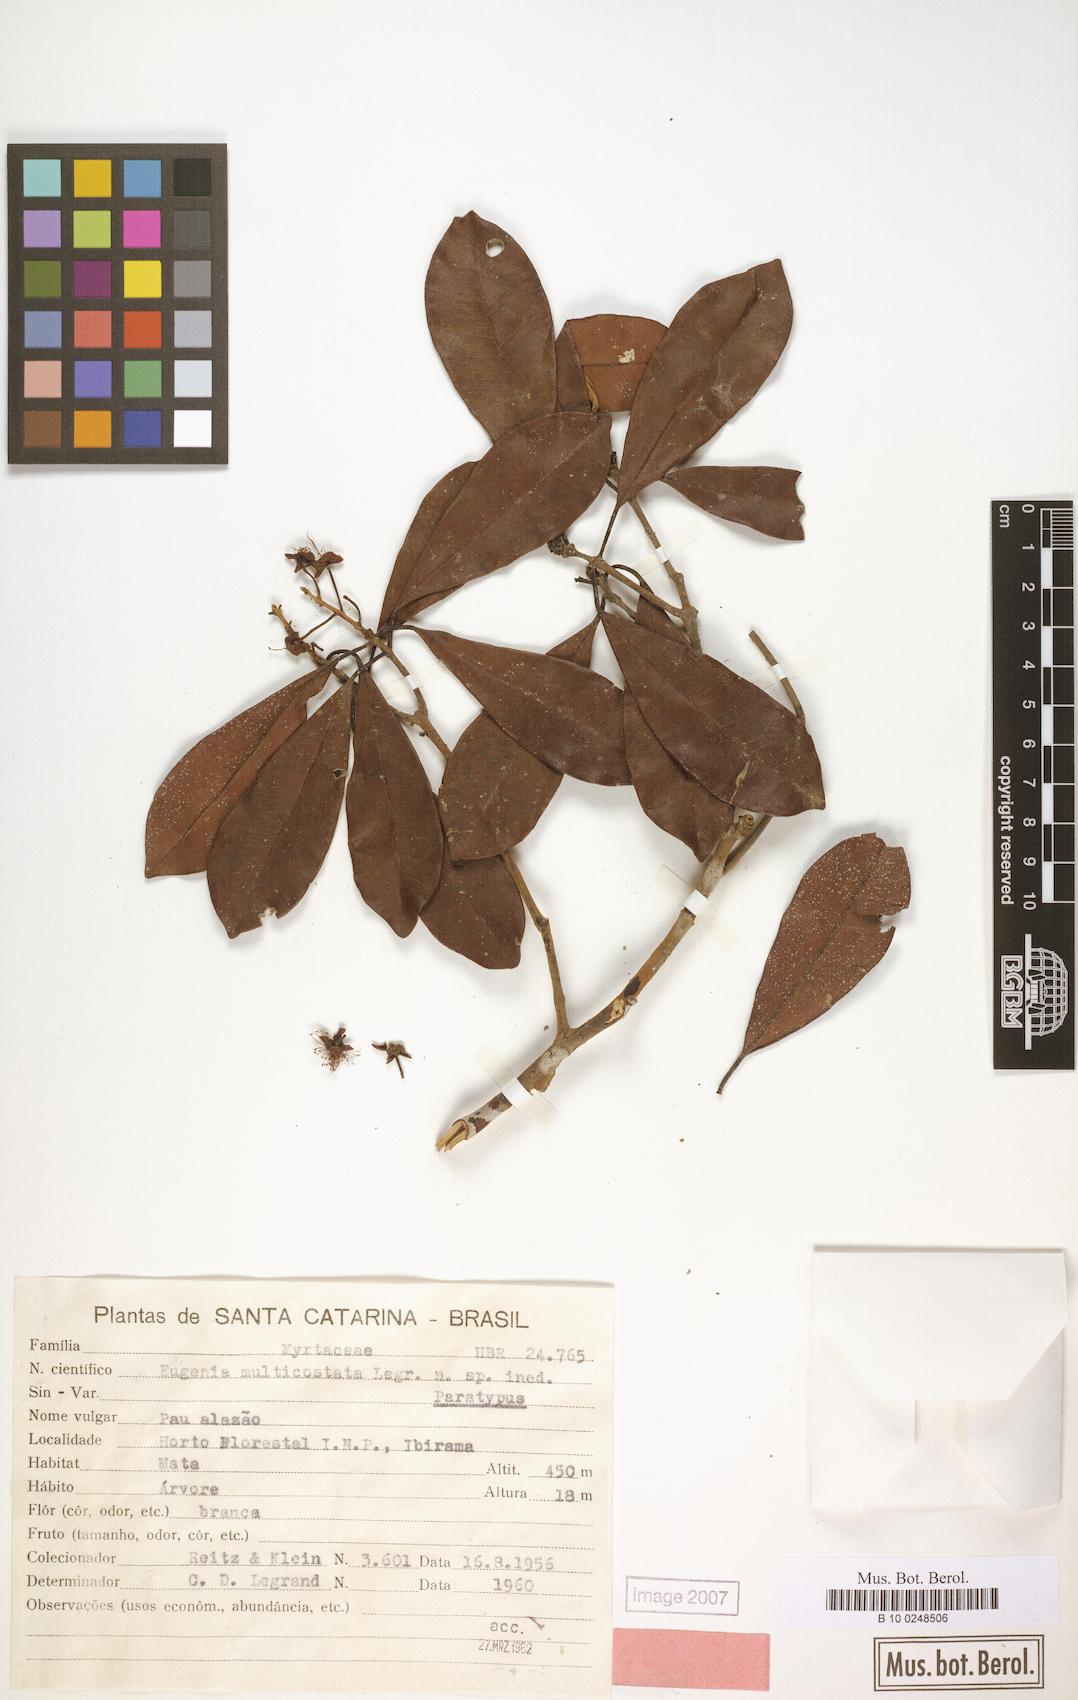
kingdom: Plantae
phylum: Tracheophyta
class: Magnoliopsida
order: Myrtales
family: Myrtaceae
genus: Eugenia
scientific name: Eugenia multicostata
